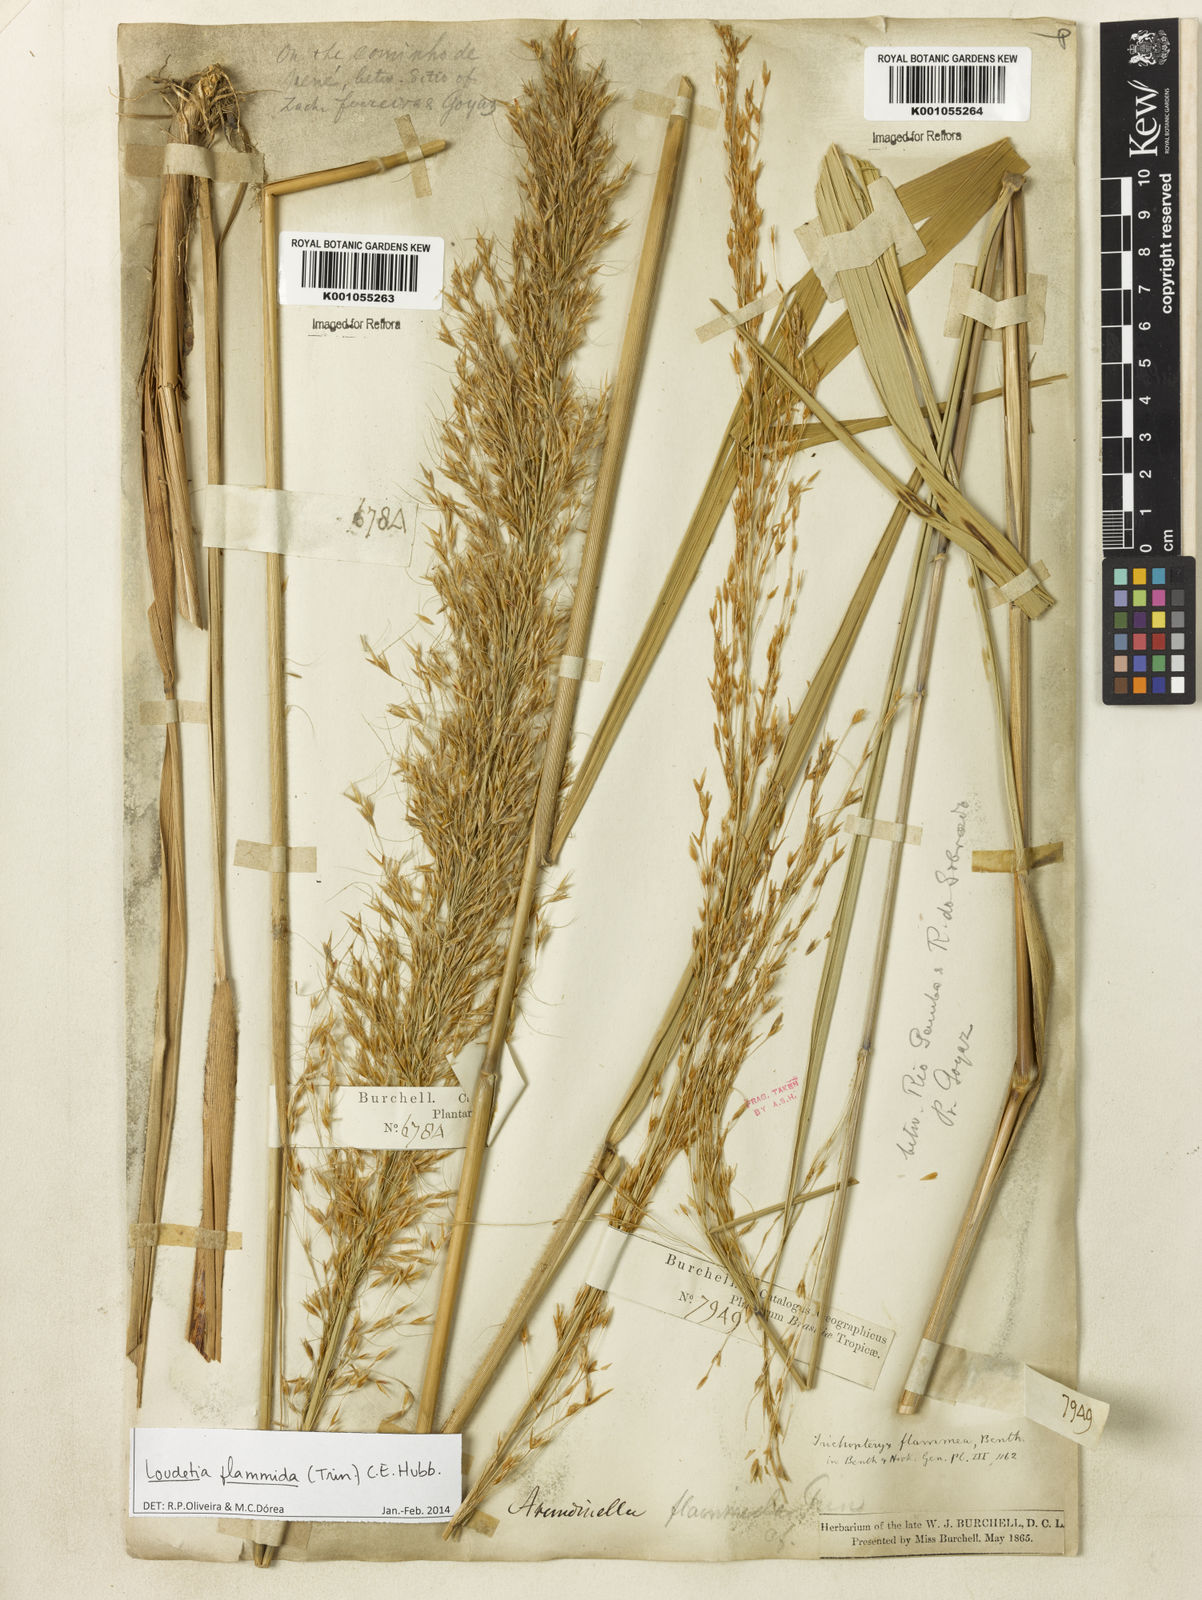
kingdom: Plantae
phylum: Tracheophyta
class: Liliopsida
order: Poales
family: Poaceae
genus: Loudetia
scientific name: Loudetia flammida
